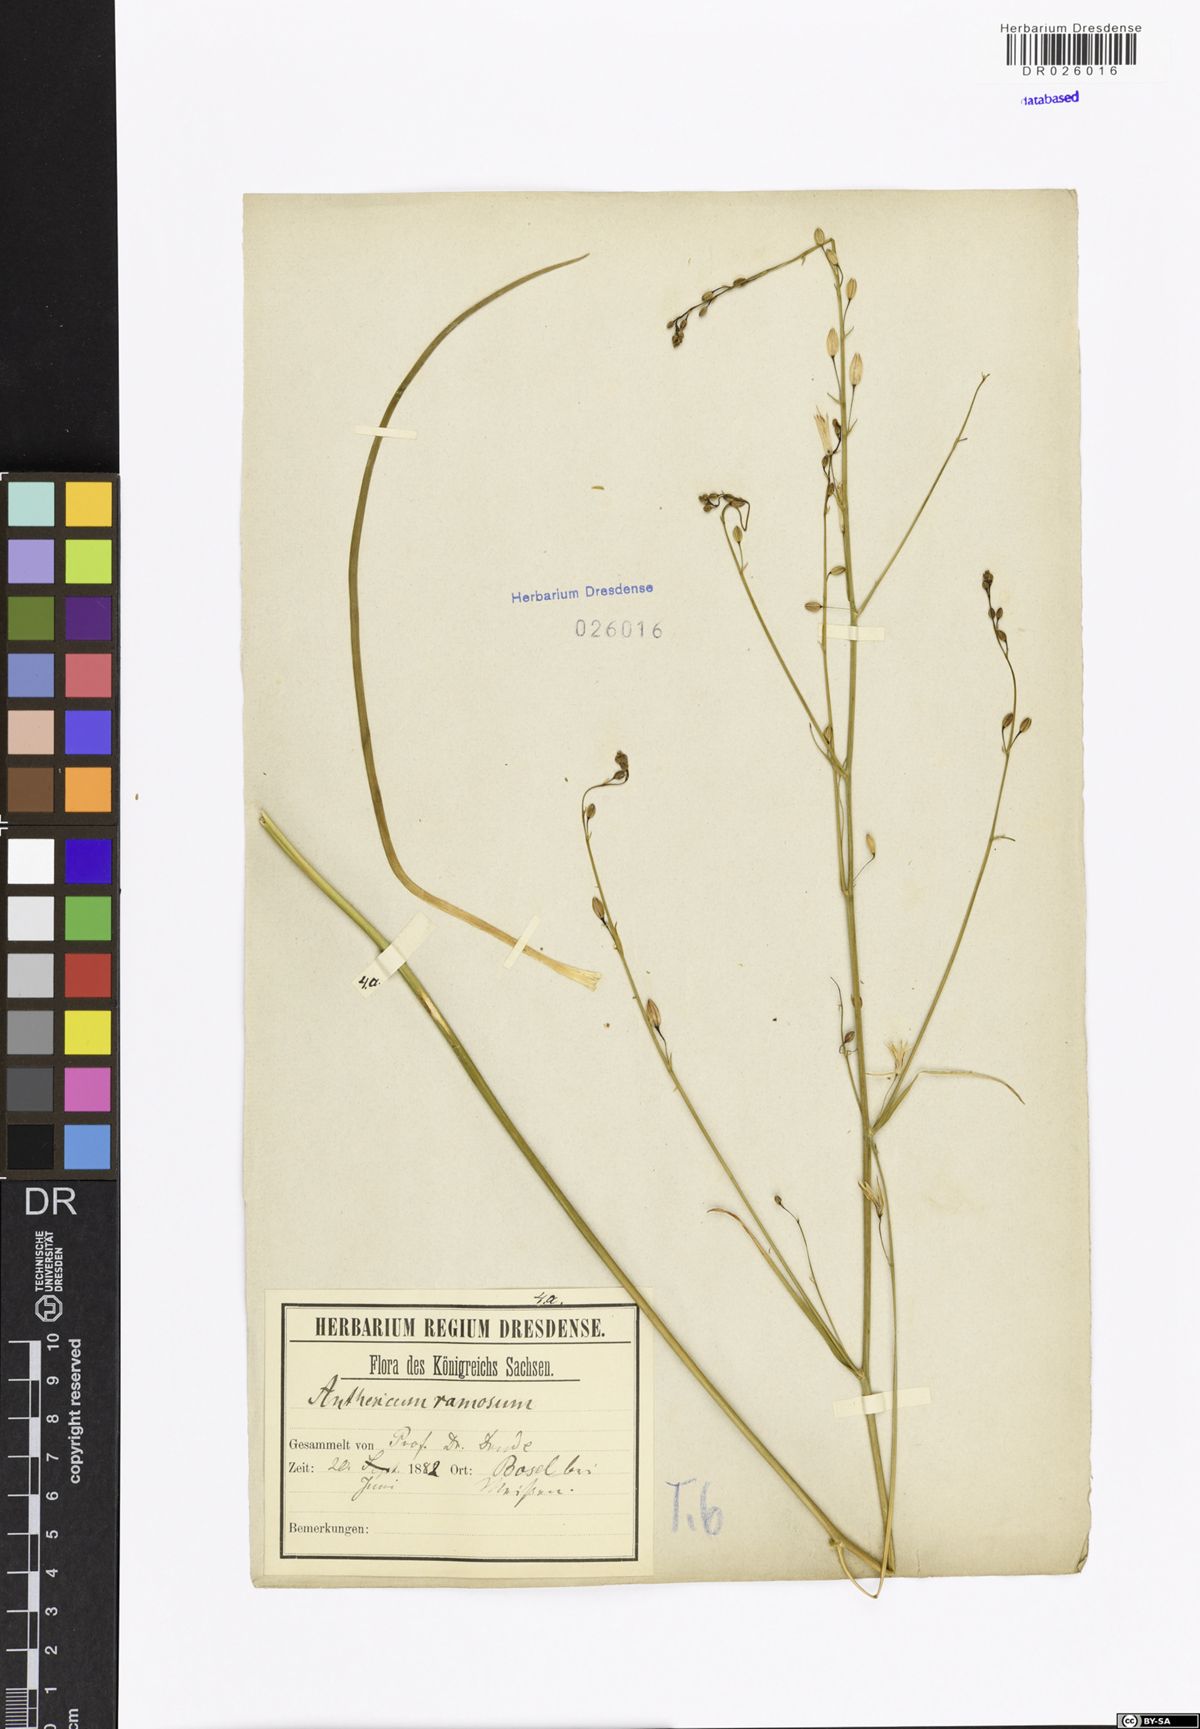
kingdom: Plantae
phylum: Tracheophyta
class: Liliopsida
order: Asparagales
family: Asparagaceae
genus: Anthericum
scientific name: Anthericum ramosum
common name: Branched st. bernard's-lily
